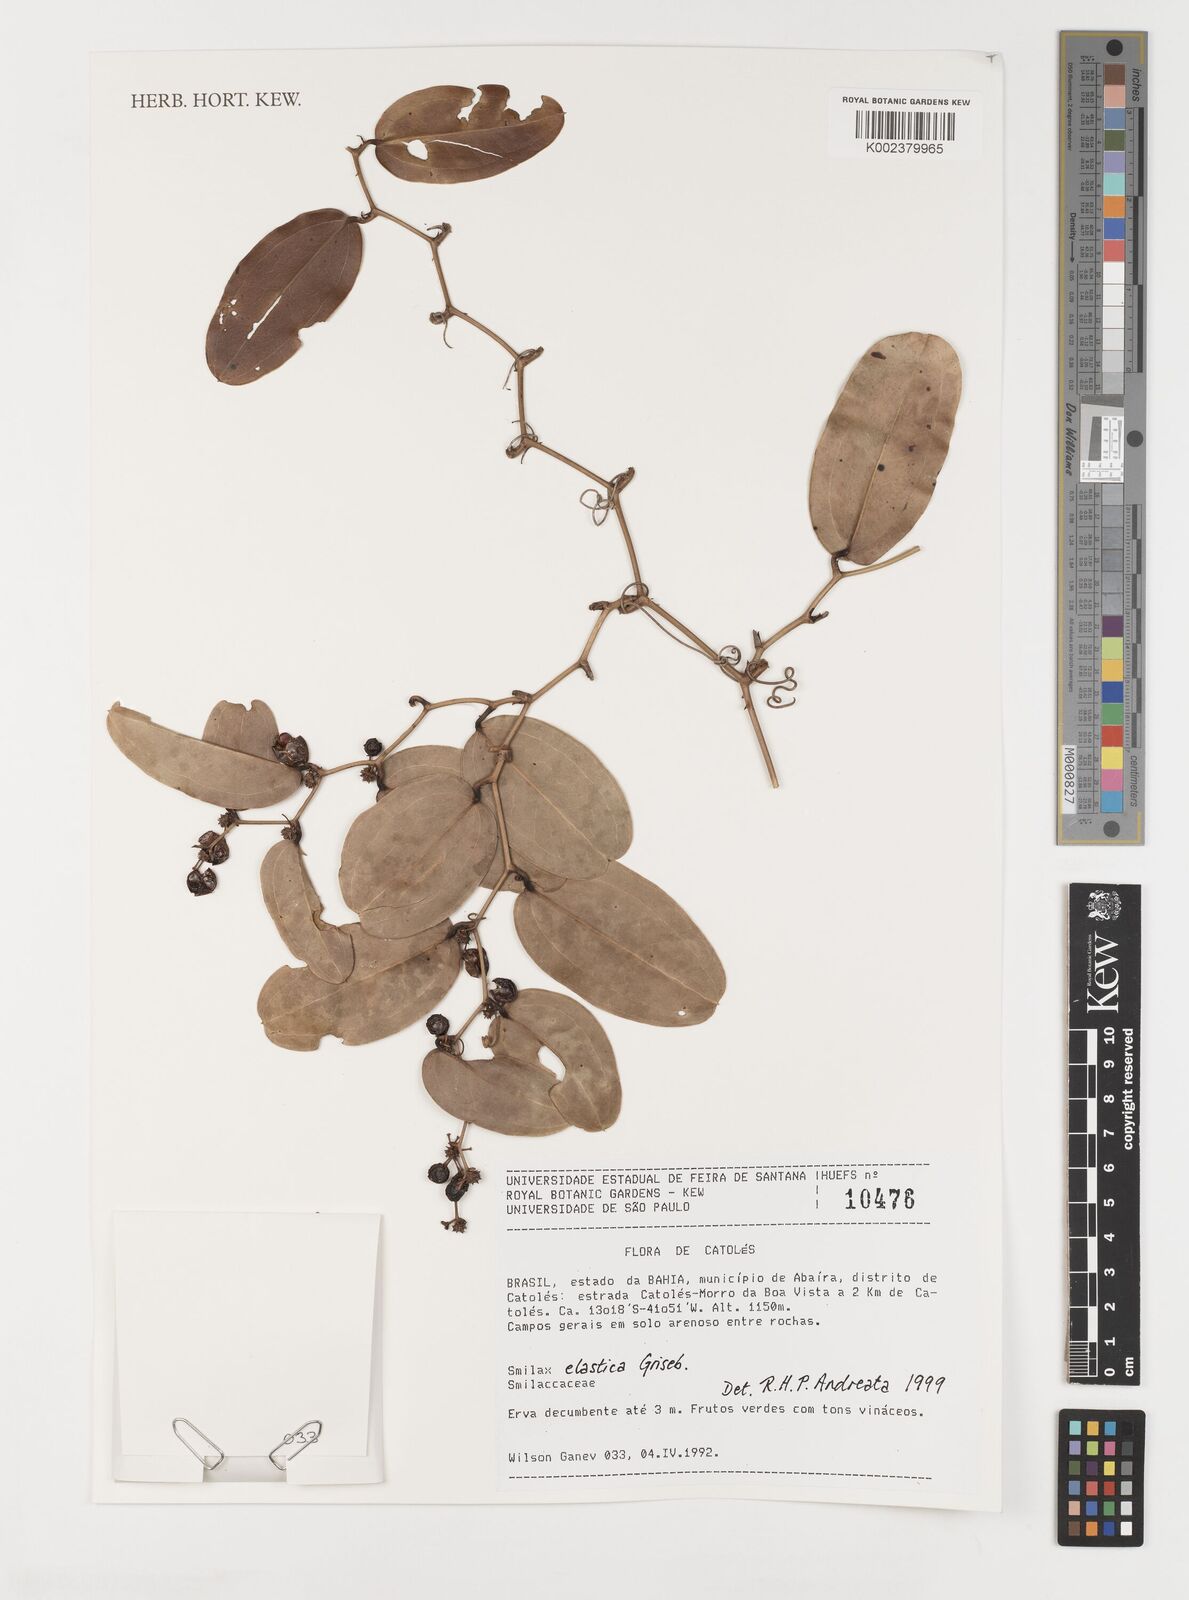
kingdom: Plantae
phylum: Tracheophyta
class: Liliopsida
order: Liliales
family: Smilacaceae
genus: Smilax
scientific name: Smilax elastica
